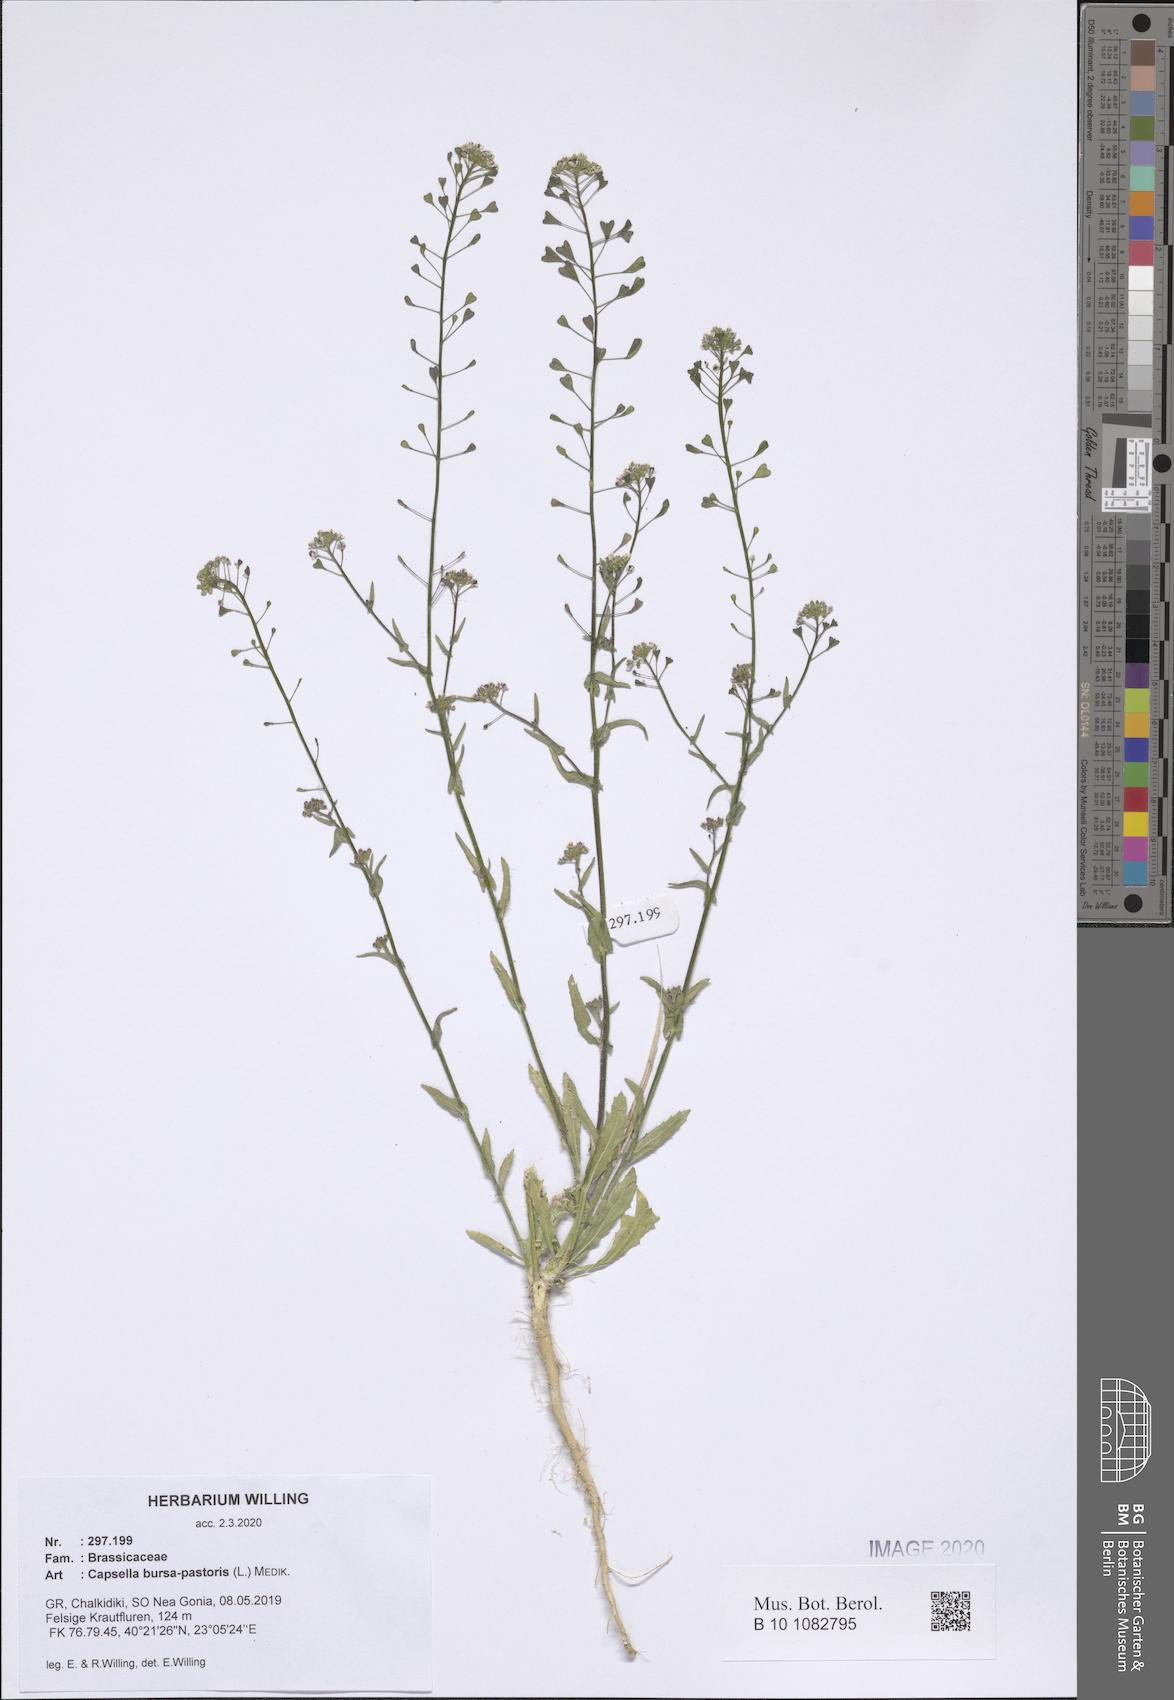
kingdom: Plantae
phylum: Tracheophyta
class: Magnoliopsida
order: Brassicales
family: Brassicaceae
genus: Capsella
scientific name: Capsella bursa-pastoris
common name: Shepherd's purse
